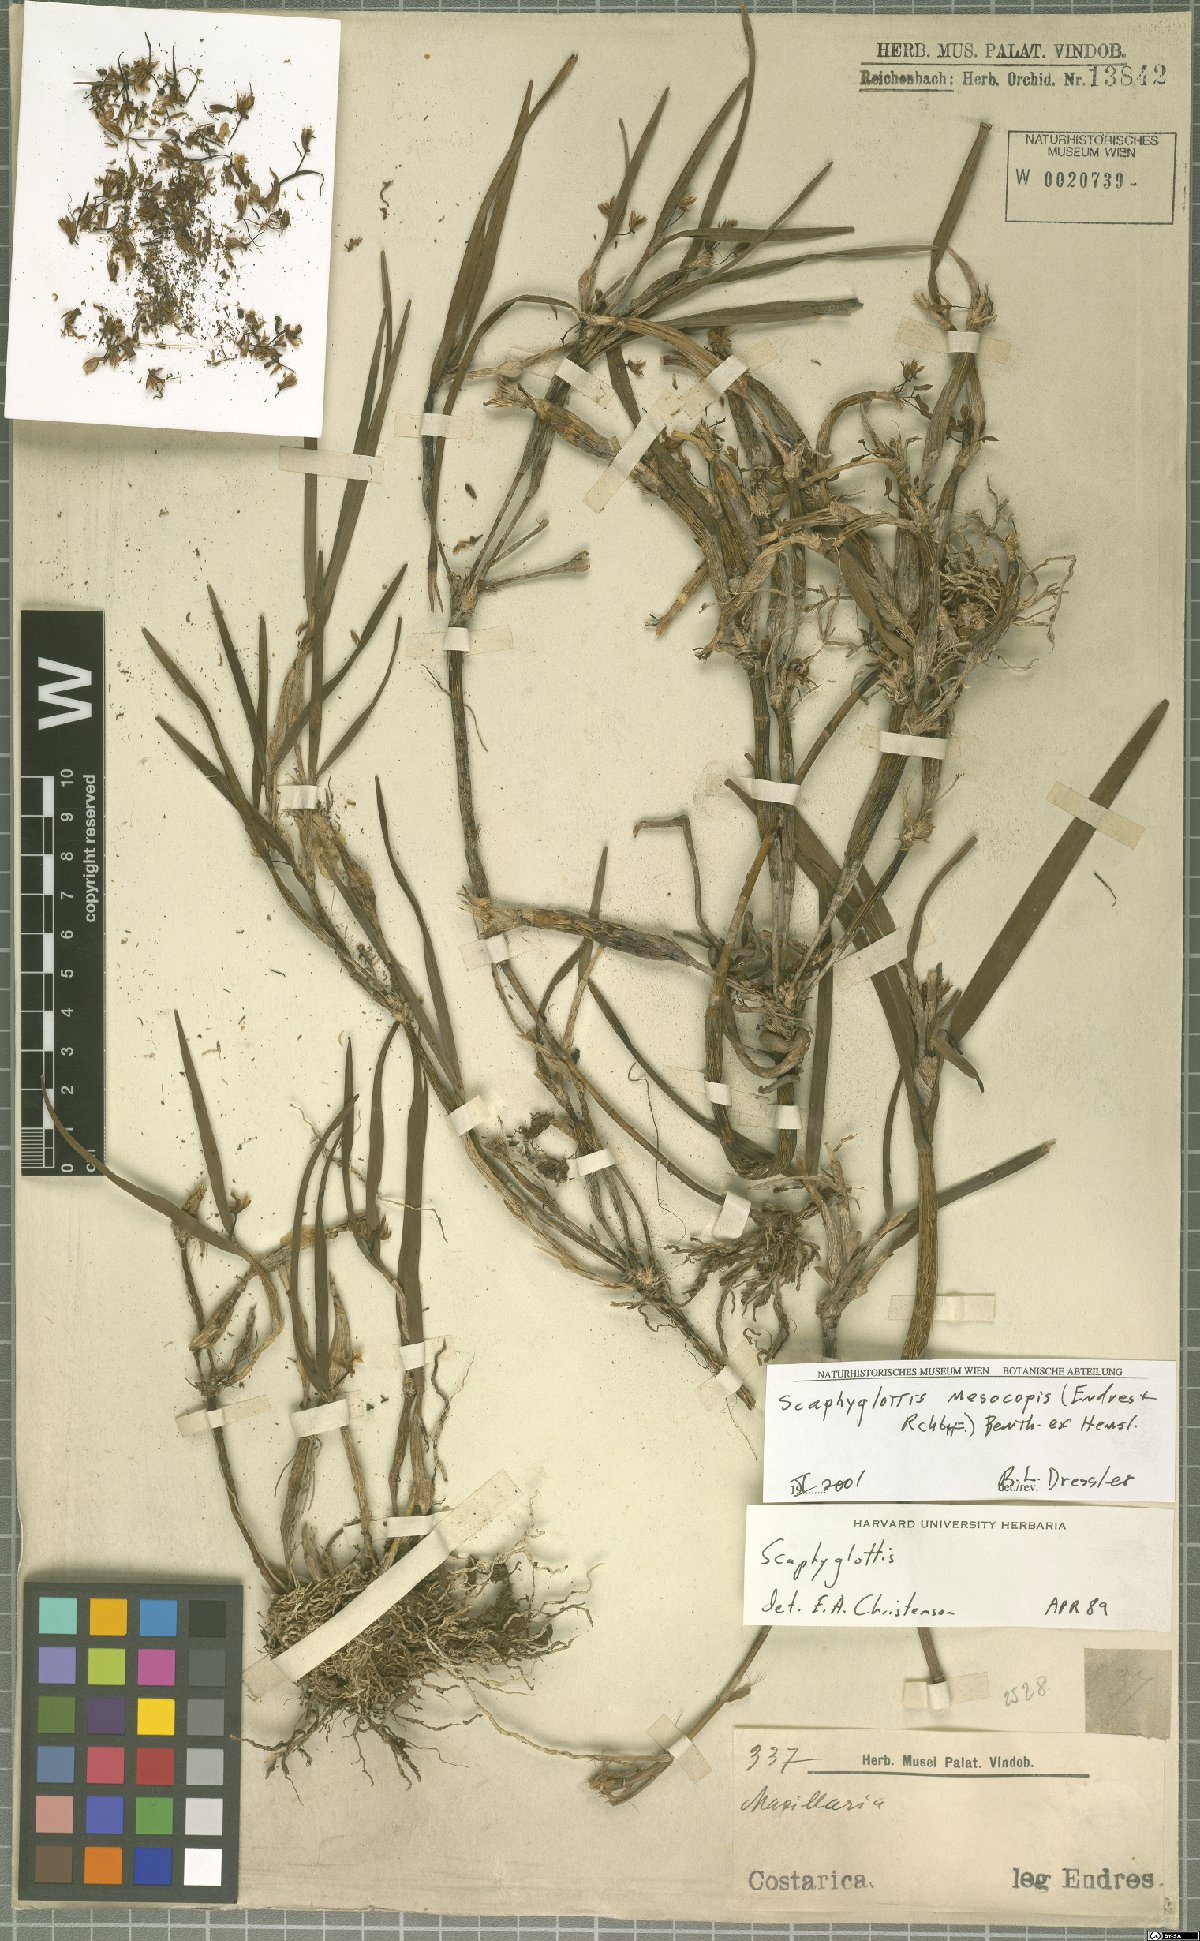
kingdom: Plantae
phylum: Tracheophyta
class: Liliopsida
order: Asparagales
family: Orchidaceae
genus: Scaphyglottis
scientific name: Scaphyglottis mesocopis
